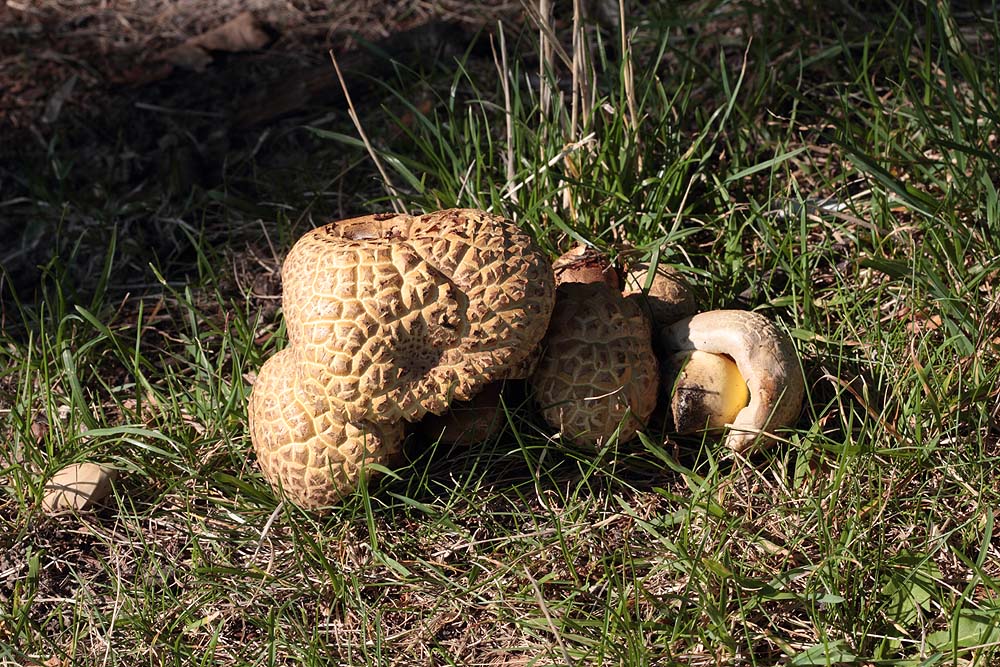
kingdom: Fungi
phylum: Basidiomycota
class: Agaricomycetes
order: Boletales
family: Boletaceae
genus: Caloboletus
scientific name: Caloboletus radicans
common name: rod-rørhat
